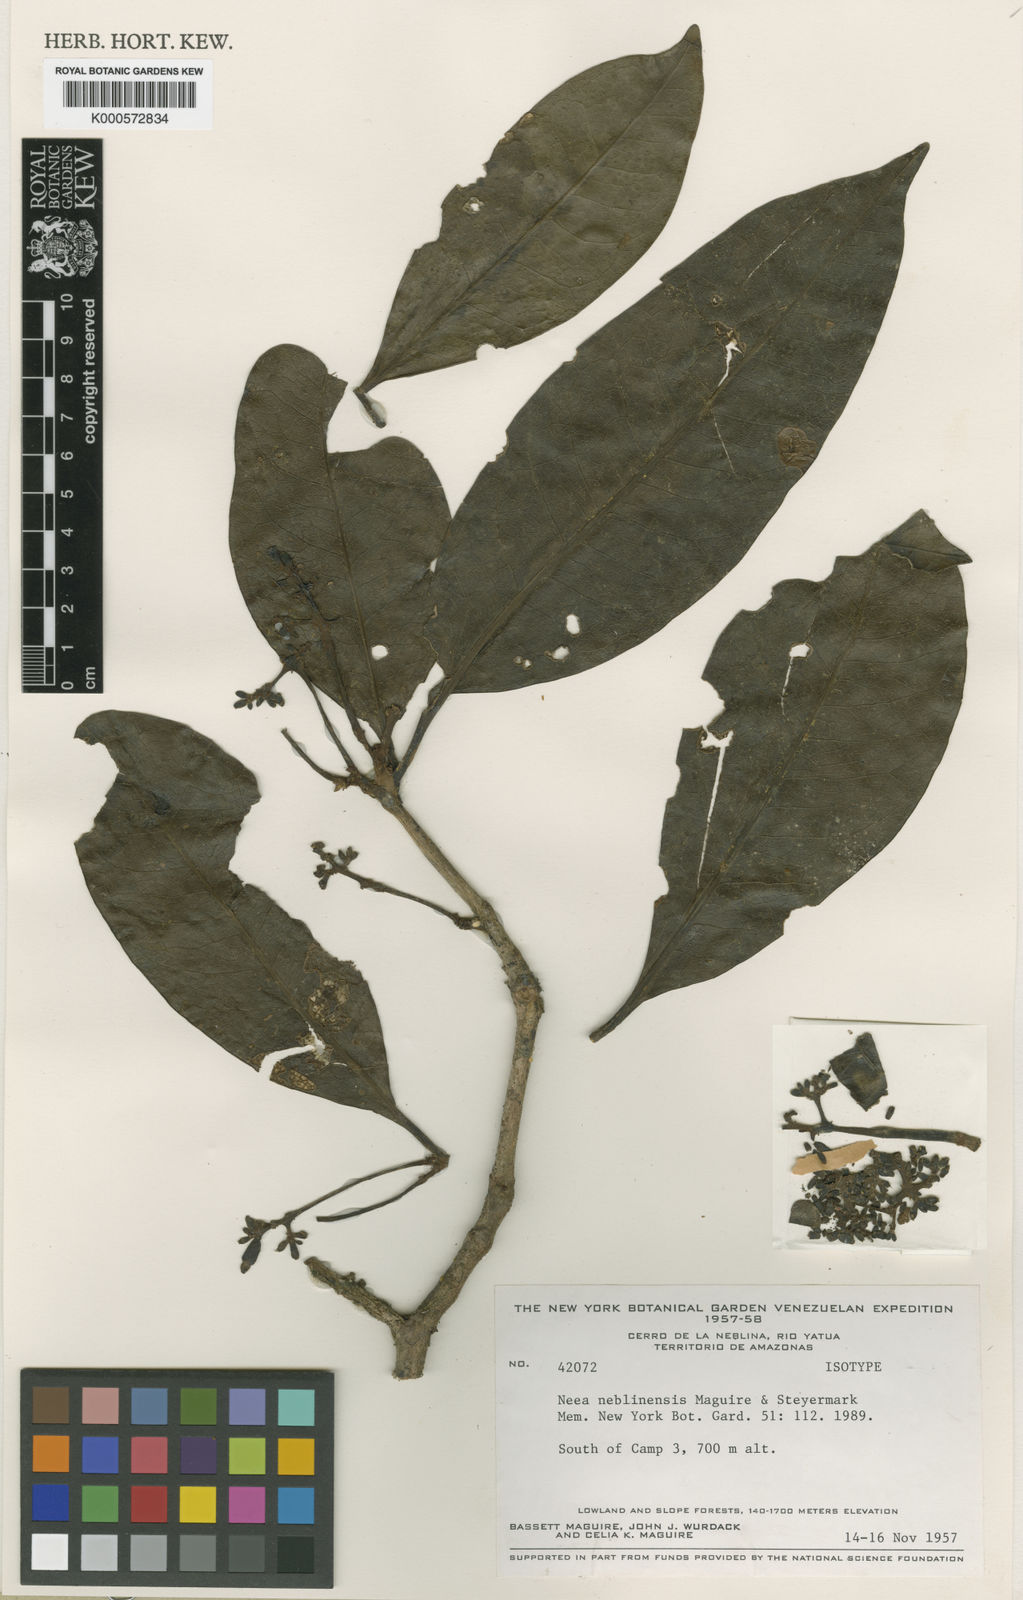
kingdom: Plantae
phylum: Tracheophyta
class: Magnoliopsida
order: Caryophyllales
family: Nyctaginaceae
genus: Neea
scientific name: Neea neblinensis
